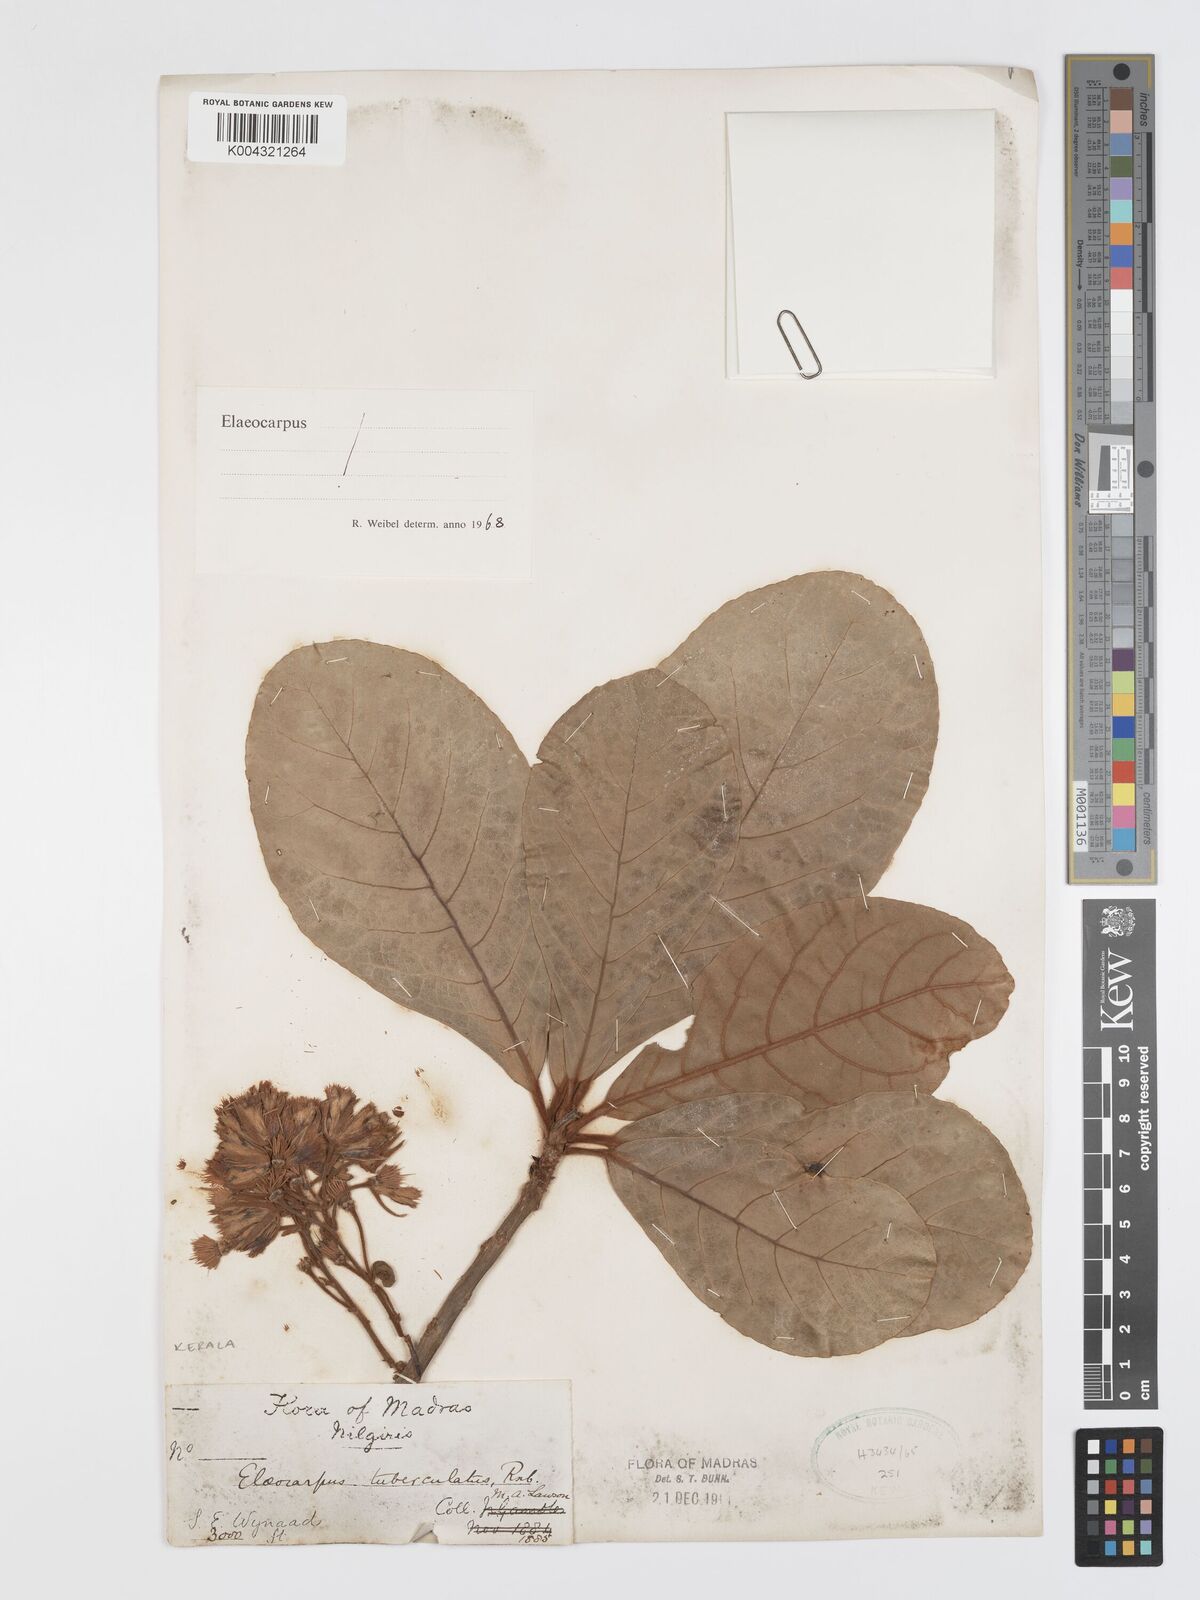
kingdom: Plantae
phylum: Tracheophyta
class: Magnoliopsida
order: Oxalidales
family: Elaeocarpaceae
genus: Elaeocarpus
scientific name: Elaeocarpus tuberculatus
